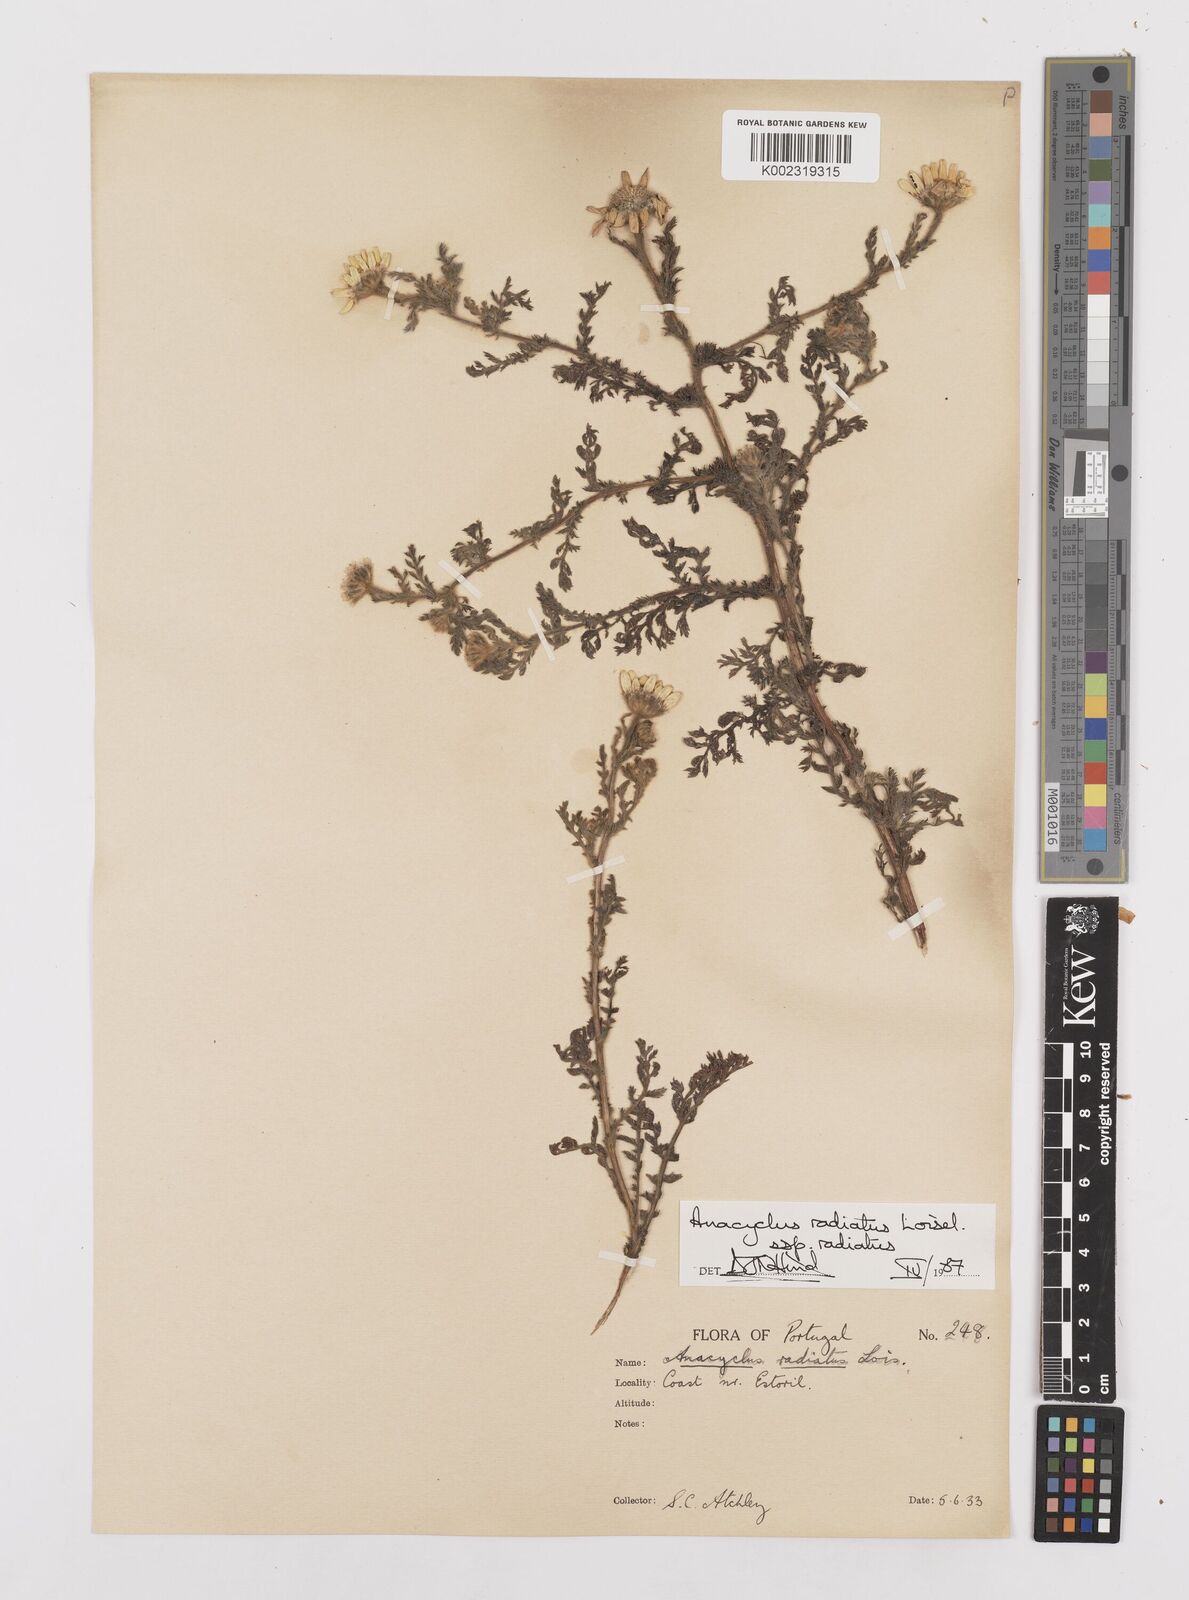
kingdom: Plantae
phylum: Tracheophyta
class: Magnoliopsida
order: Asterales
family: Asteraceae
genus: Anacyclus
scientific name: Anacyclus radiatus
